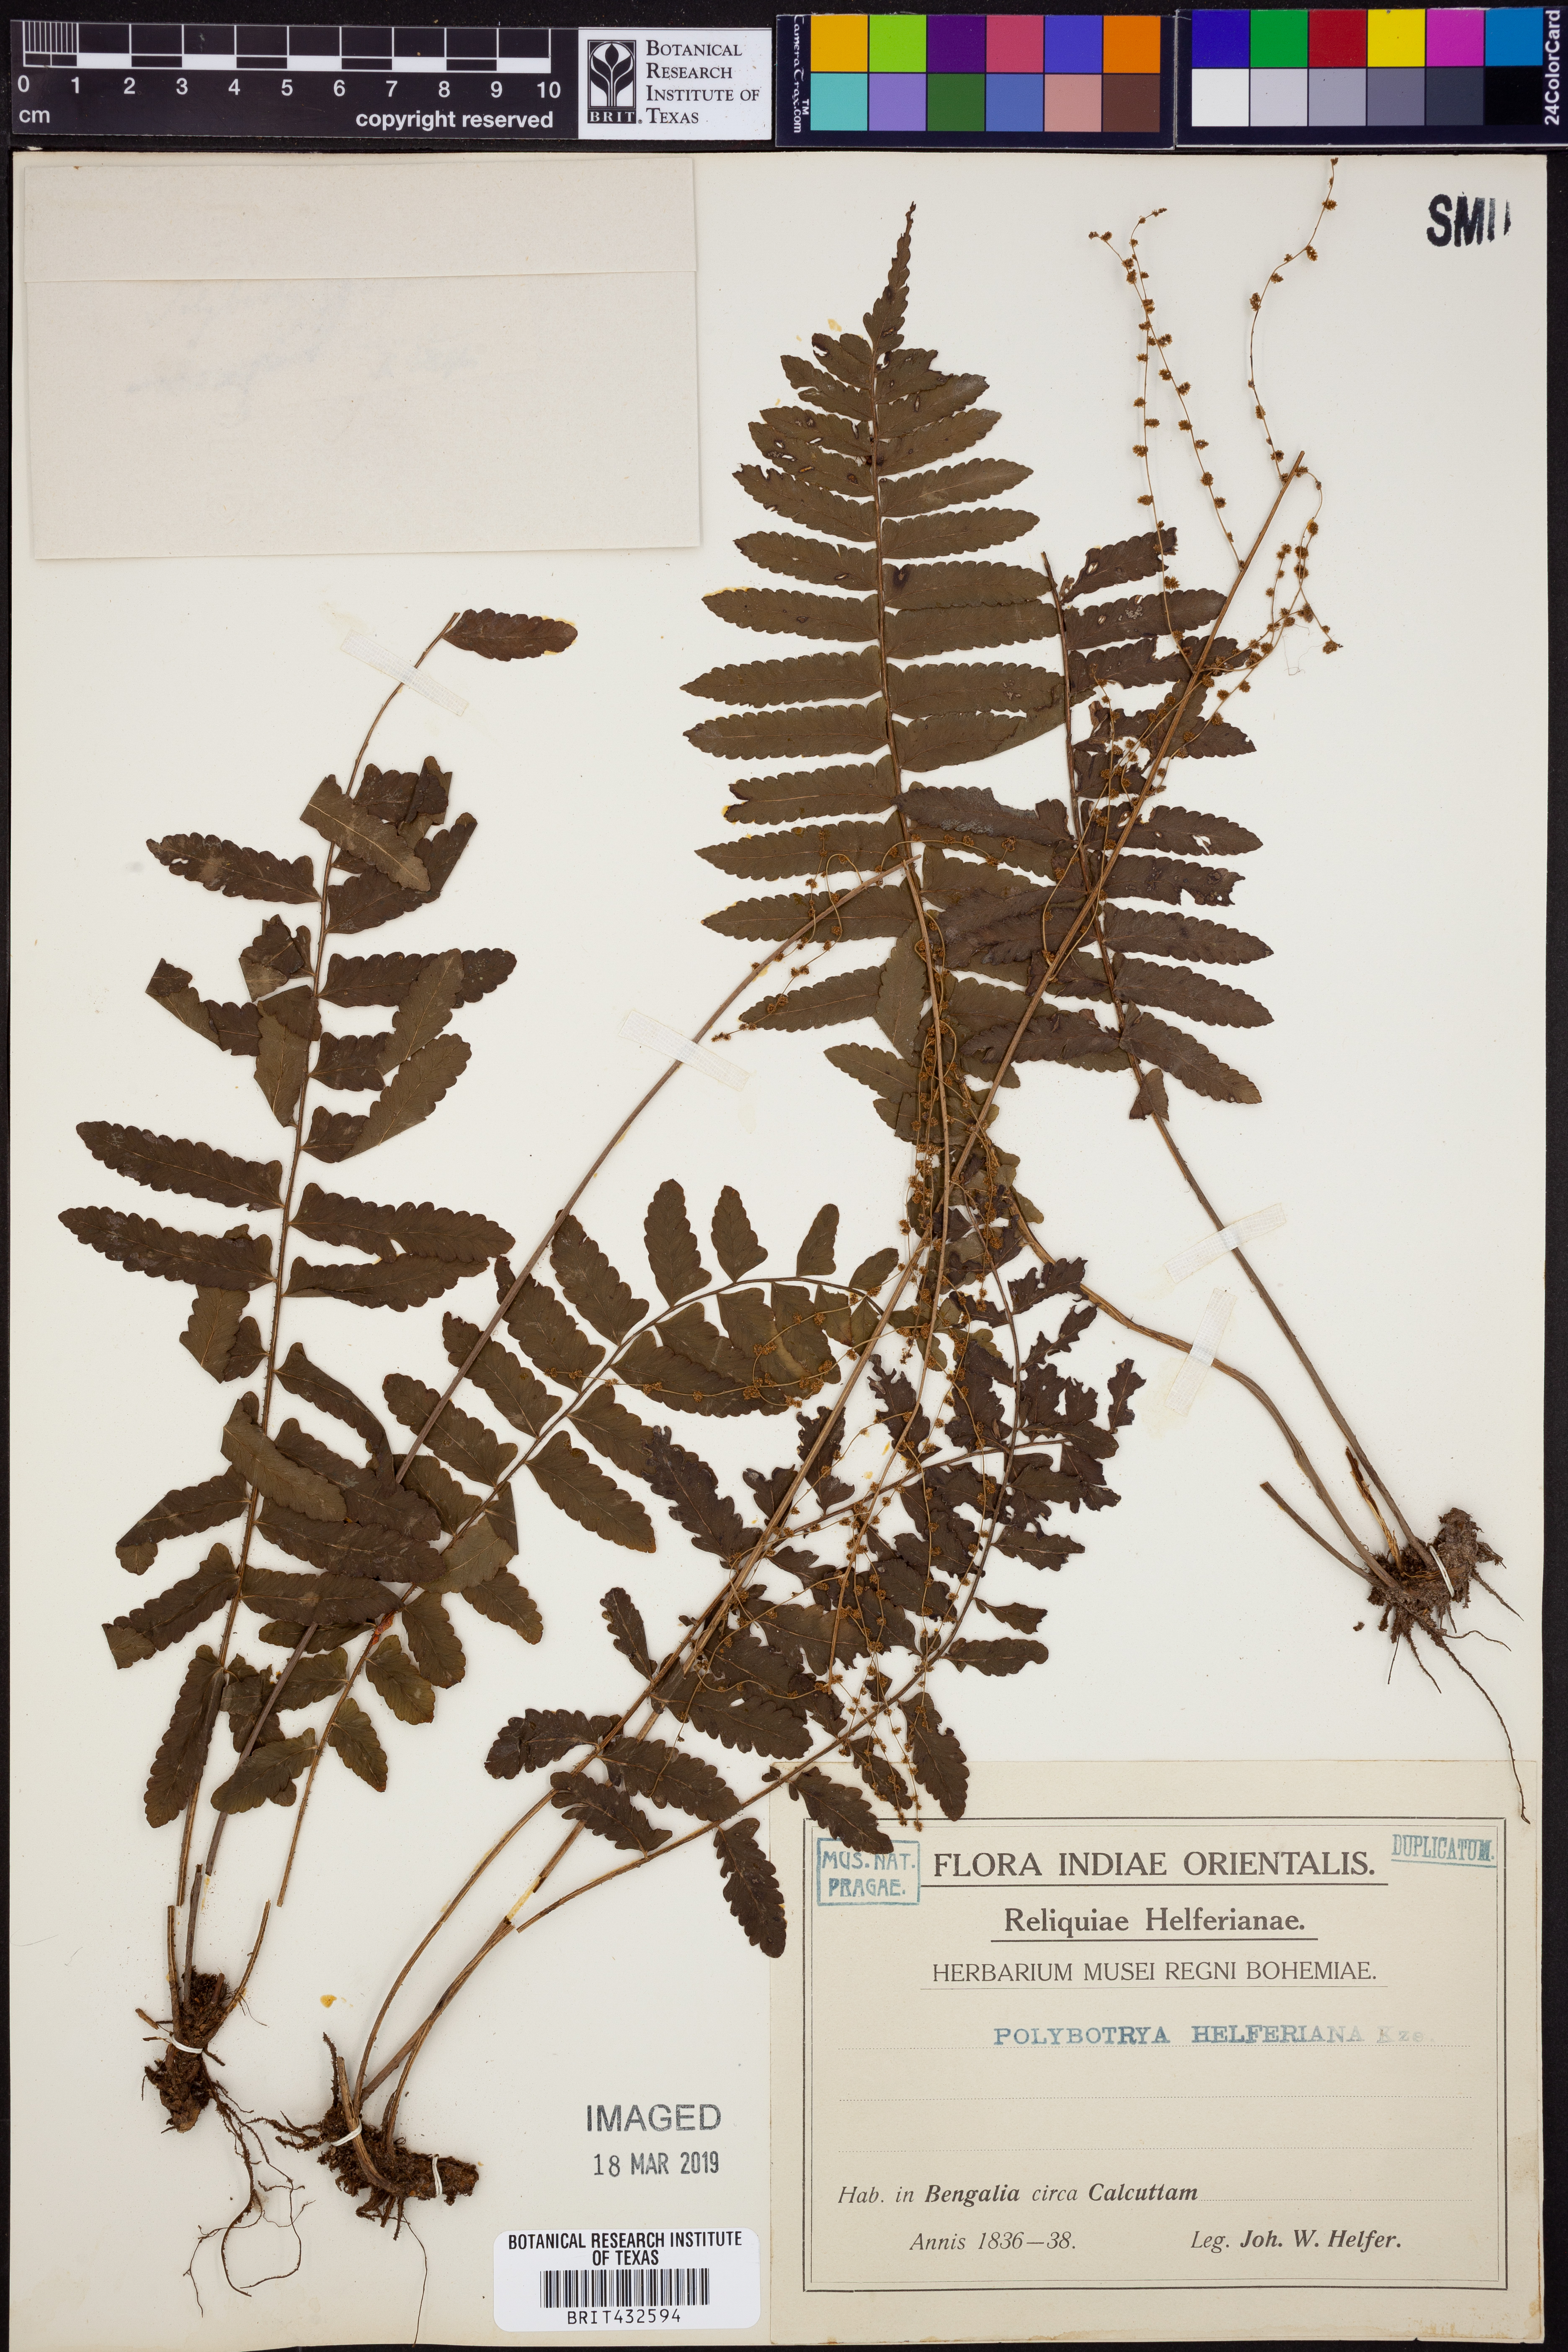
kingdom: Plantae
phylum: Tracheophyta
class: Polypodiopsida
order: Polypodiales
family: Dryopteridaceae
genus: Bolbitis
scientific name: Bolbitis appendiculata
